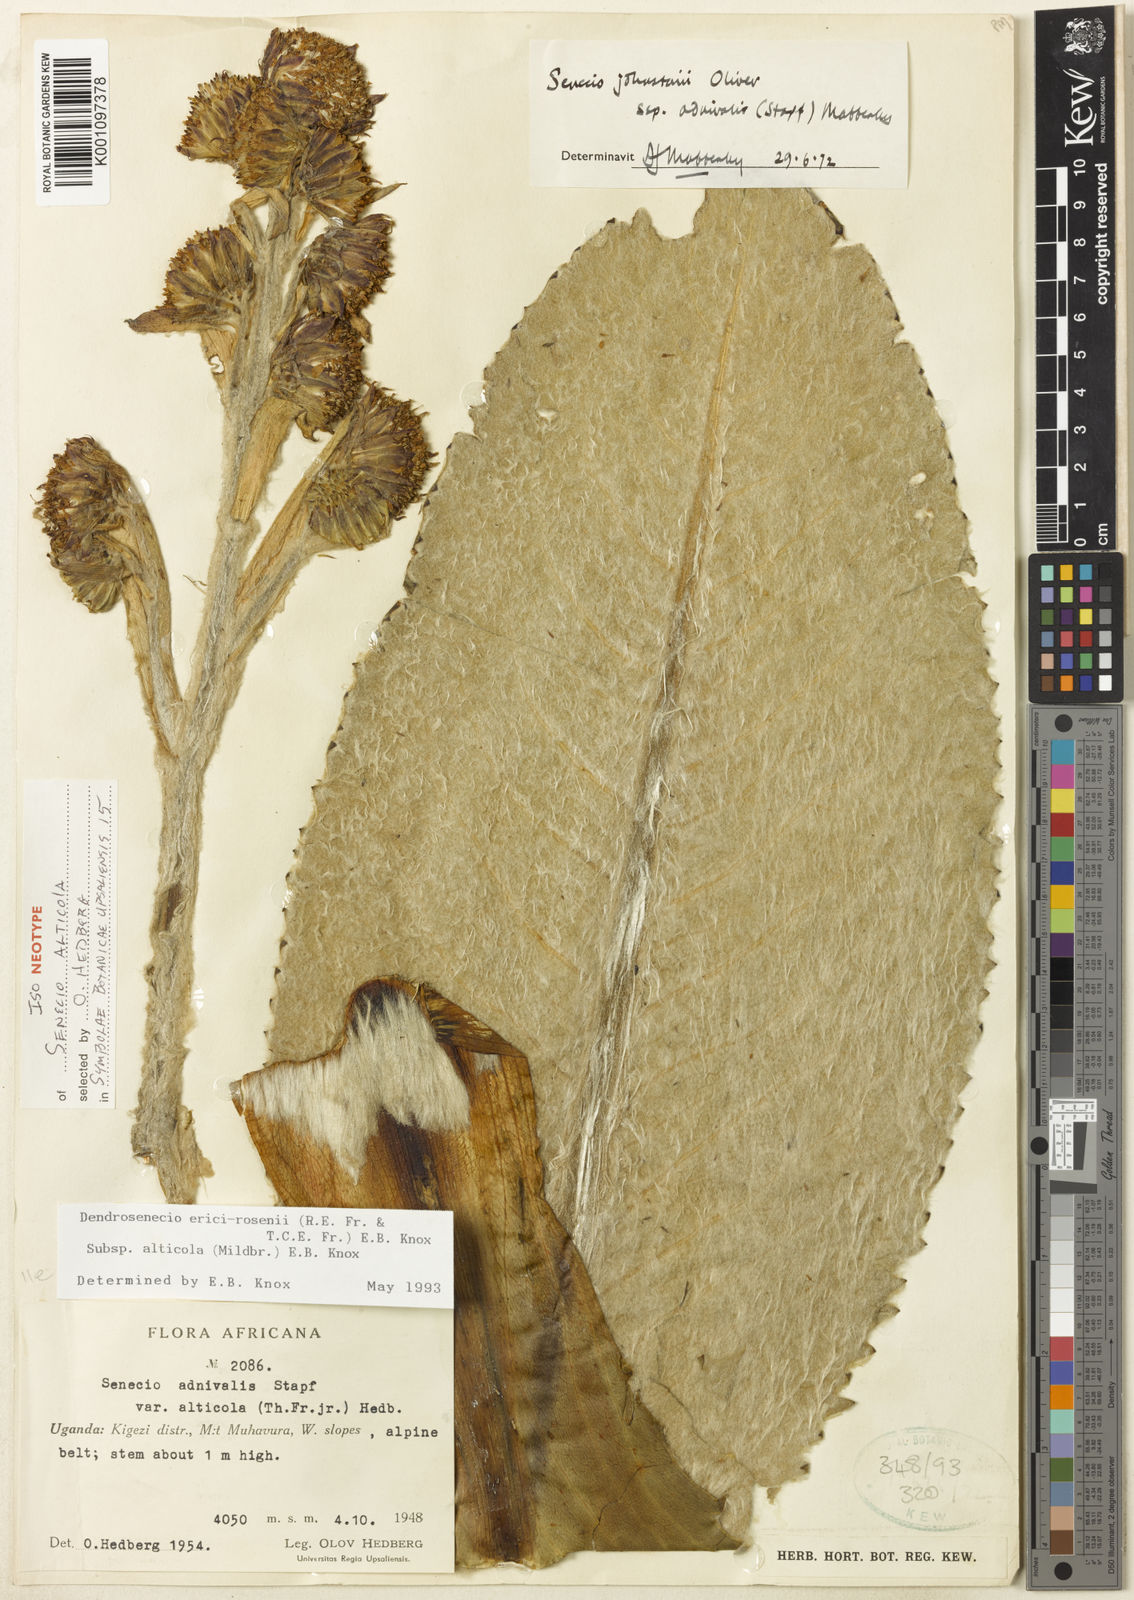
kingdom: Plantae
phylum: Tracheophyta
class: Magnoliopsida
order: Asterales
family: Asteraceae
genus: Dendrosenecio
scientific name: Dendrosenecio erici-rosenii
